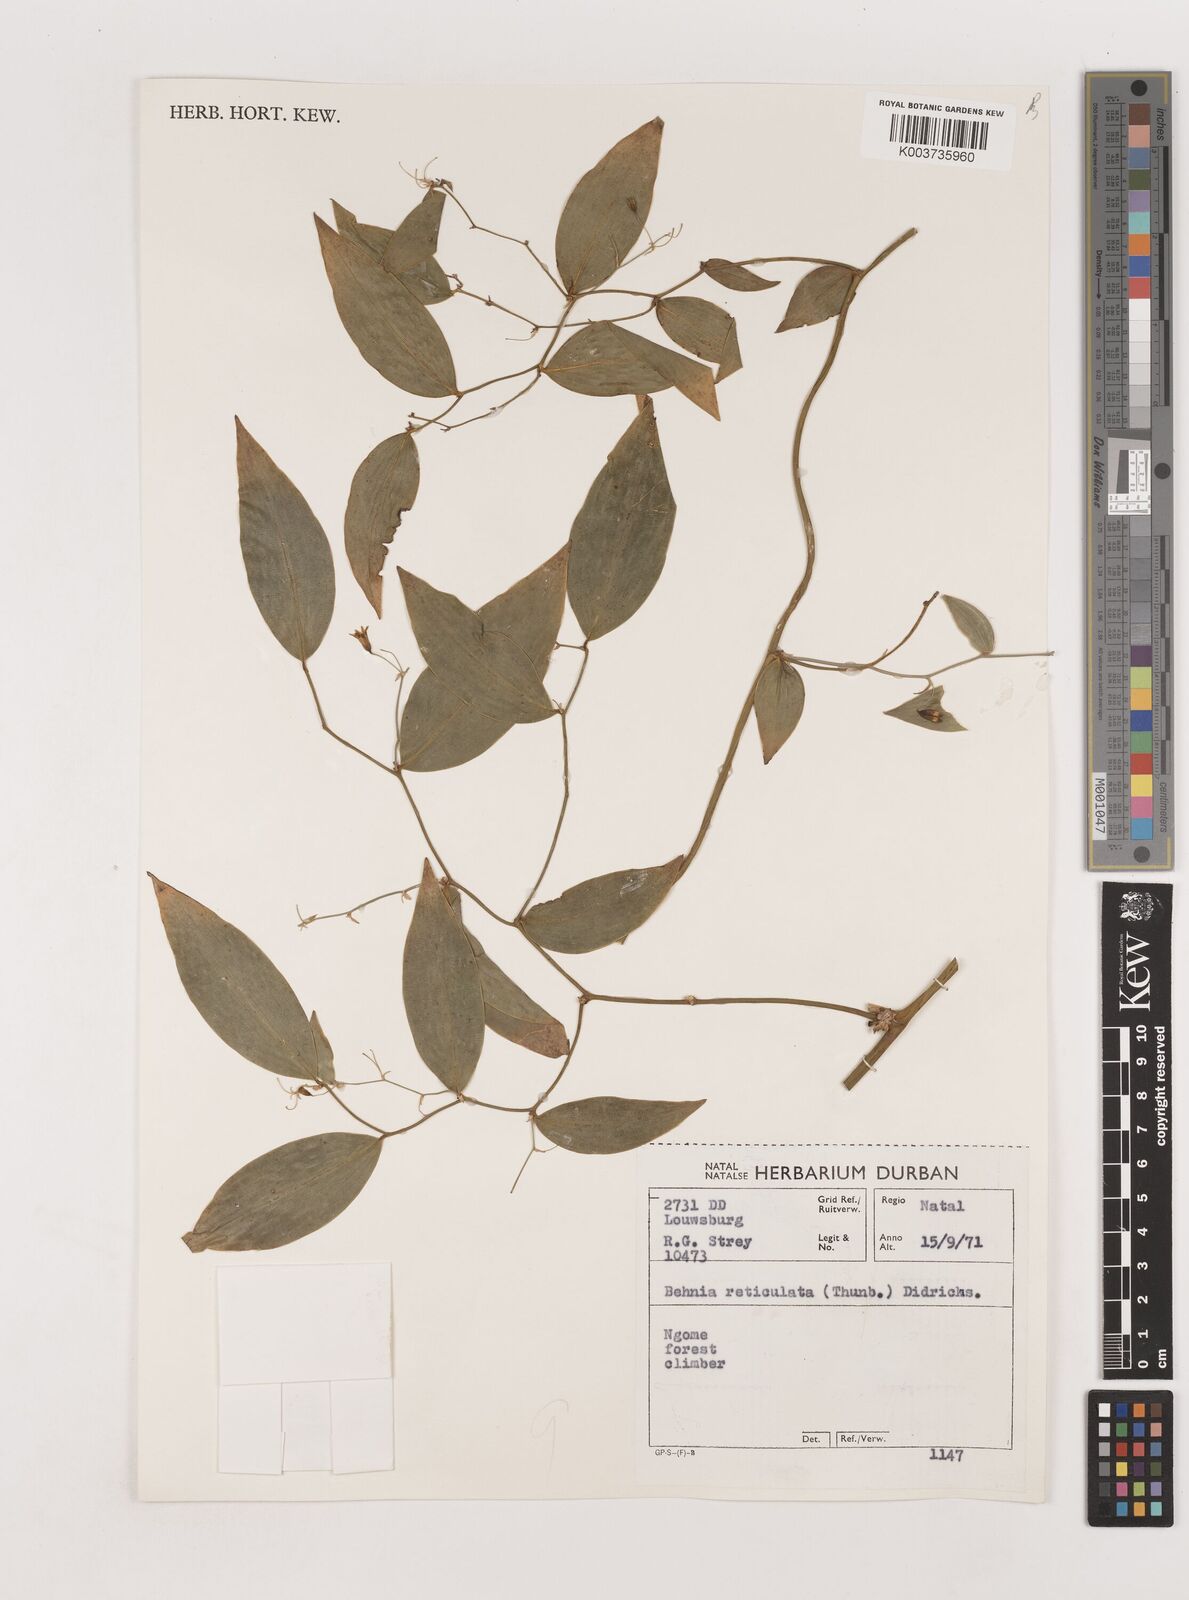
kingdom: Plantae
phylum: Tracheophyta
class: Liliopsida
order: Asparagales
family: Asparagaceae
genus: Behnia
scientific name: Behnia reticulata
